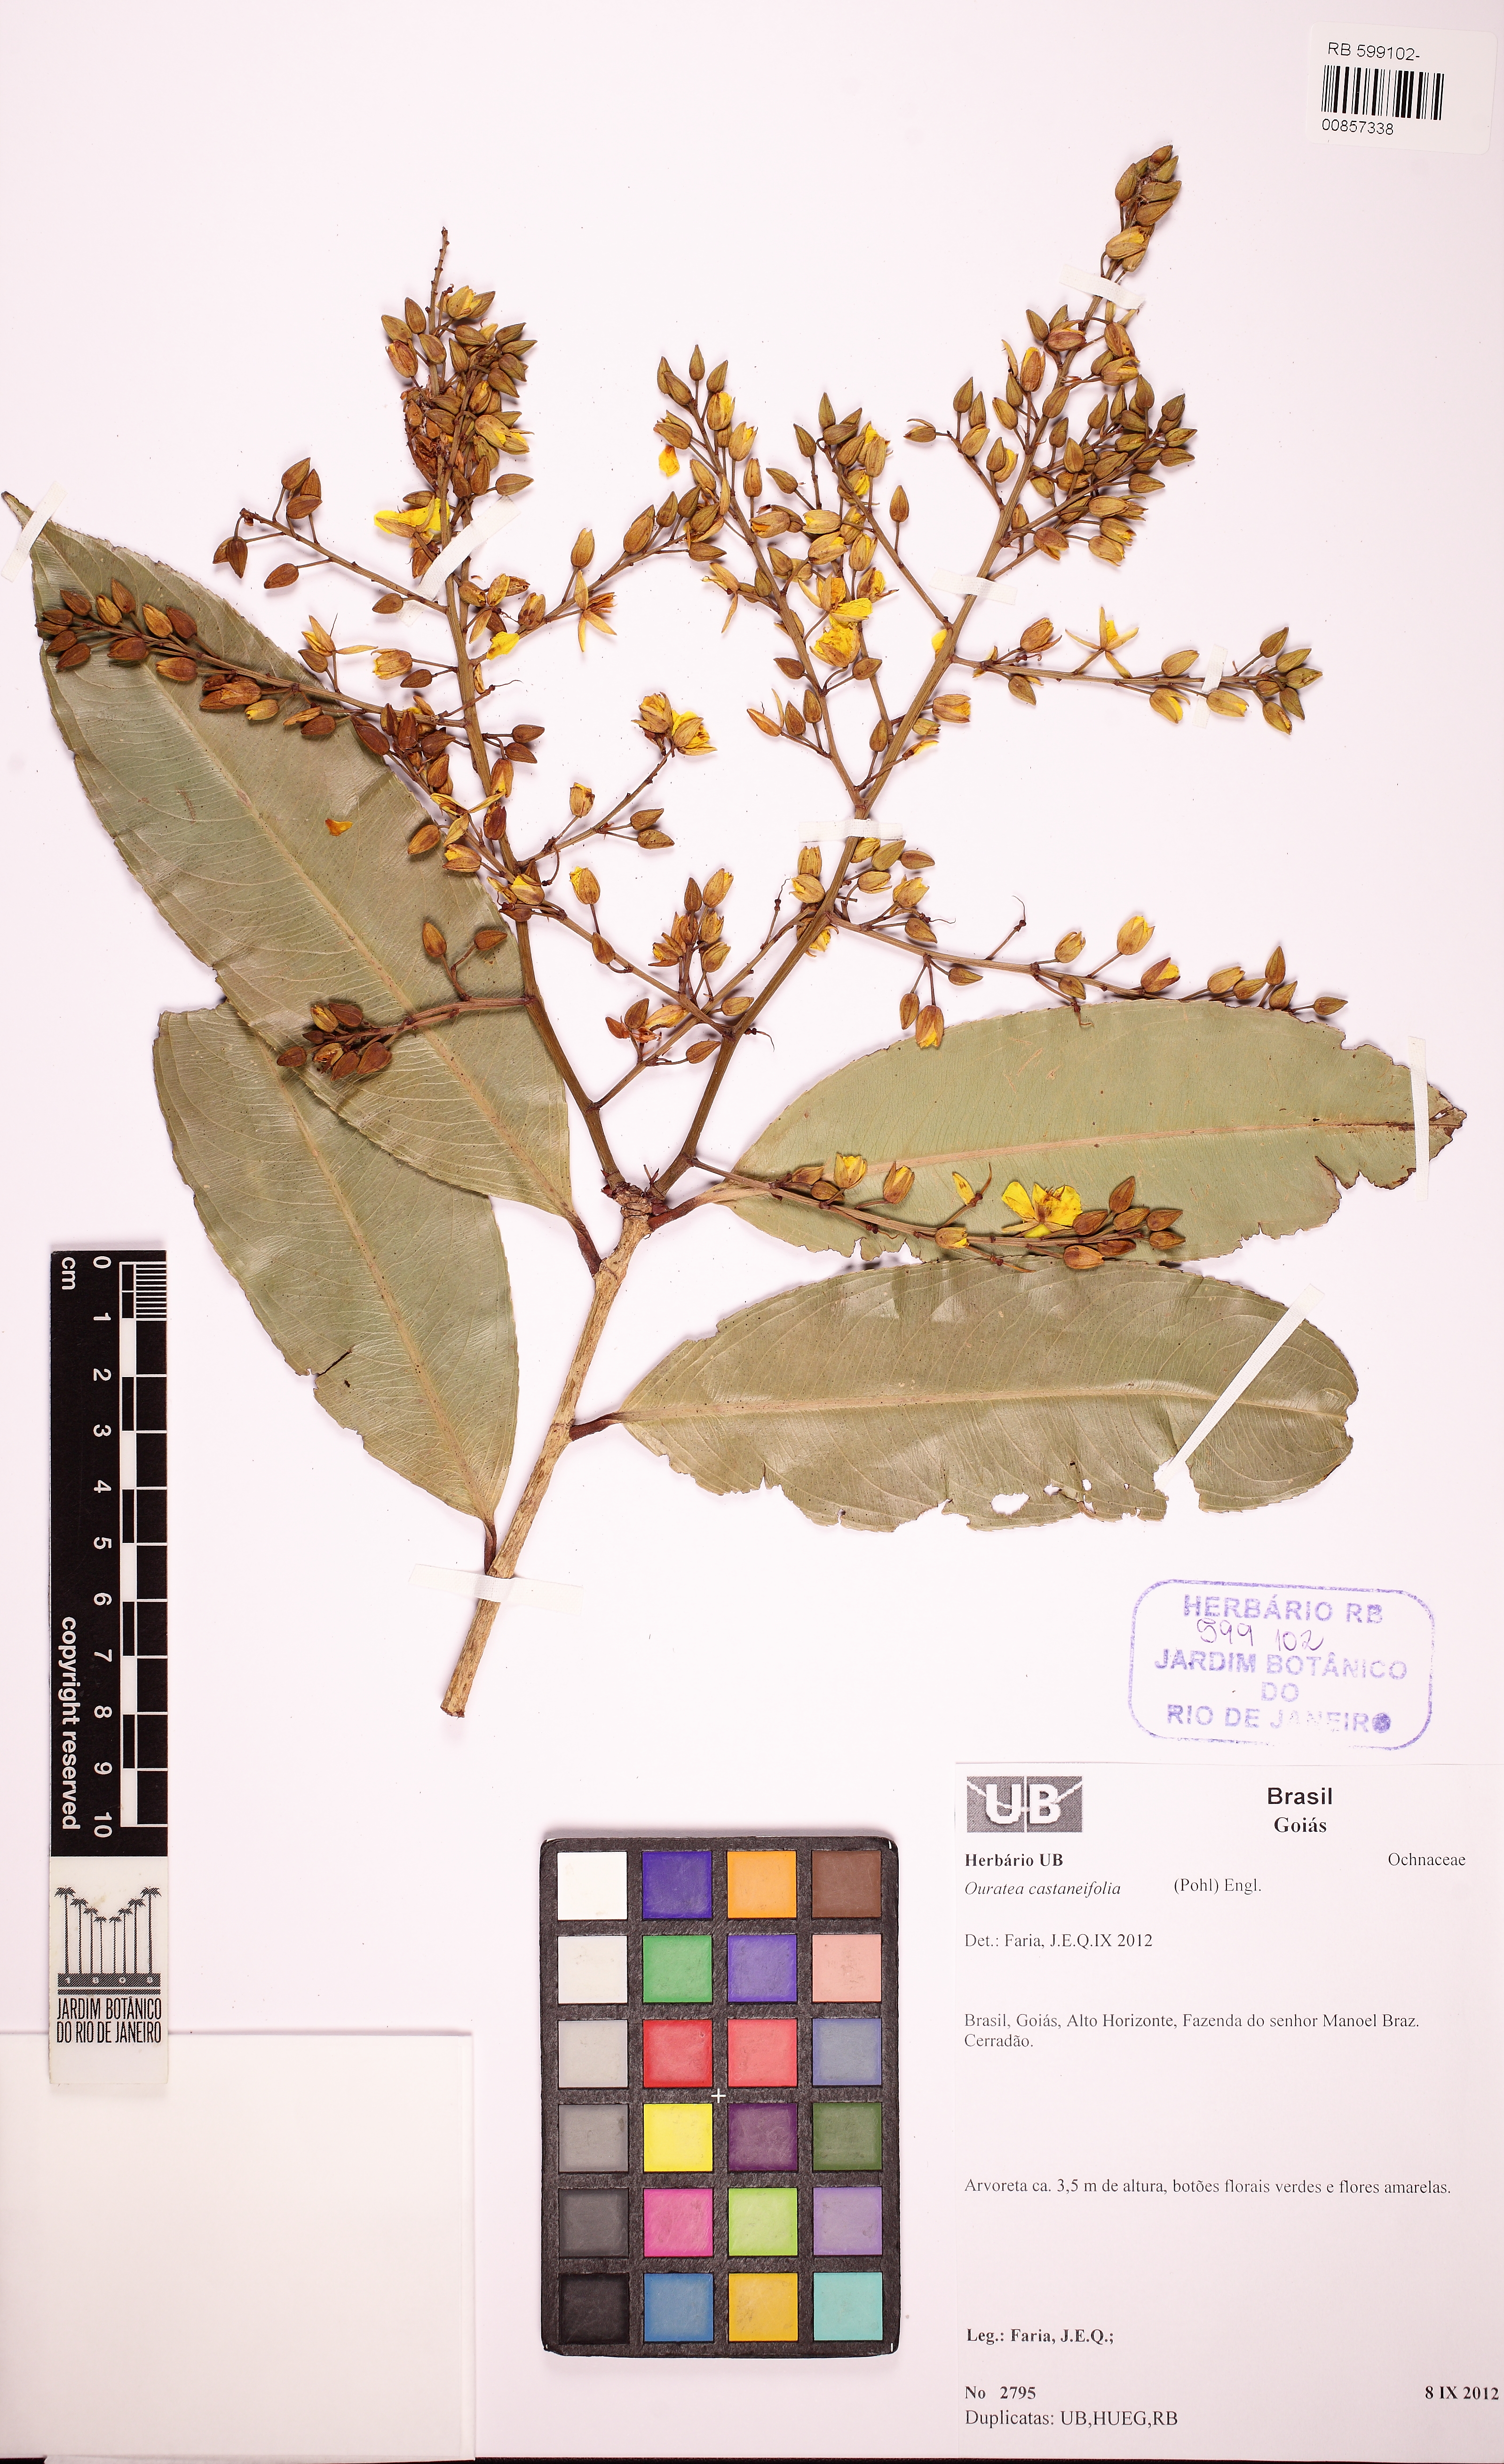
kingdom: Plantae
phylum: Tracheophyta
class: Magnoliopsida
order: Malpighiales
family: Ochnaceae
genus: Ouratea
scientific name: Ouratea castaneifolia
